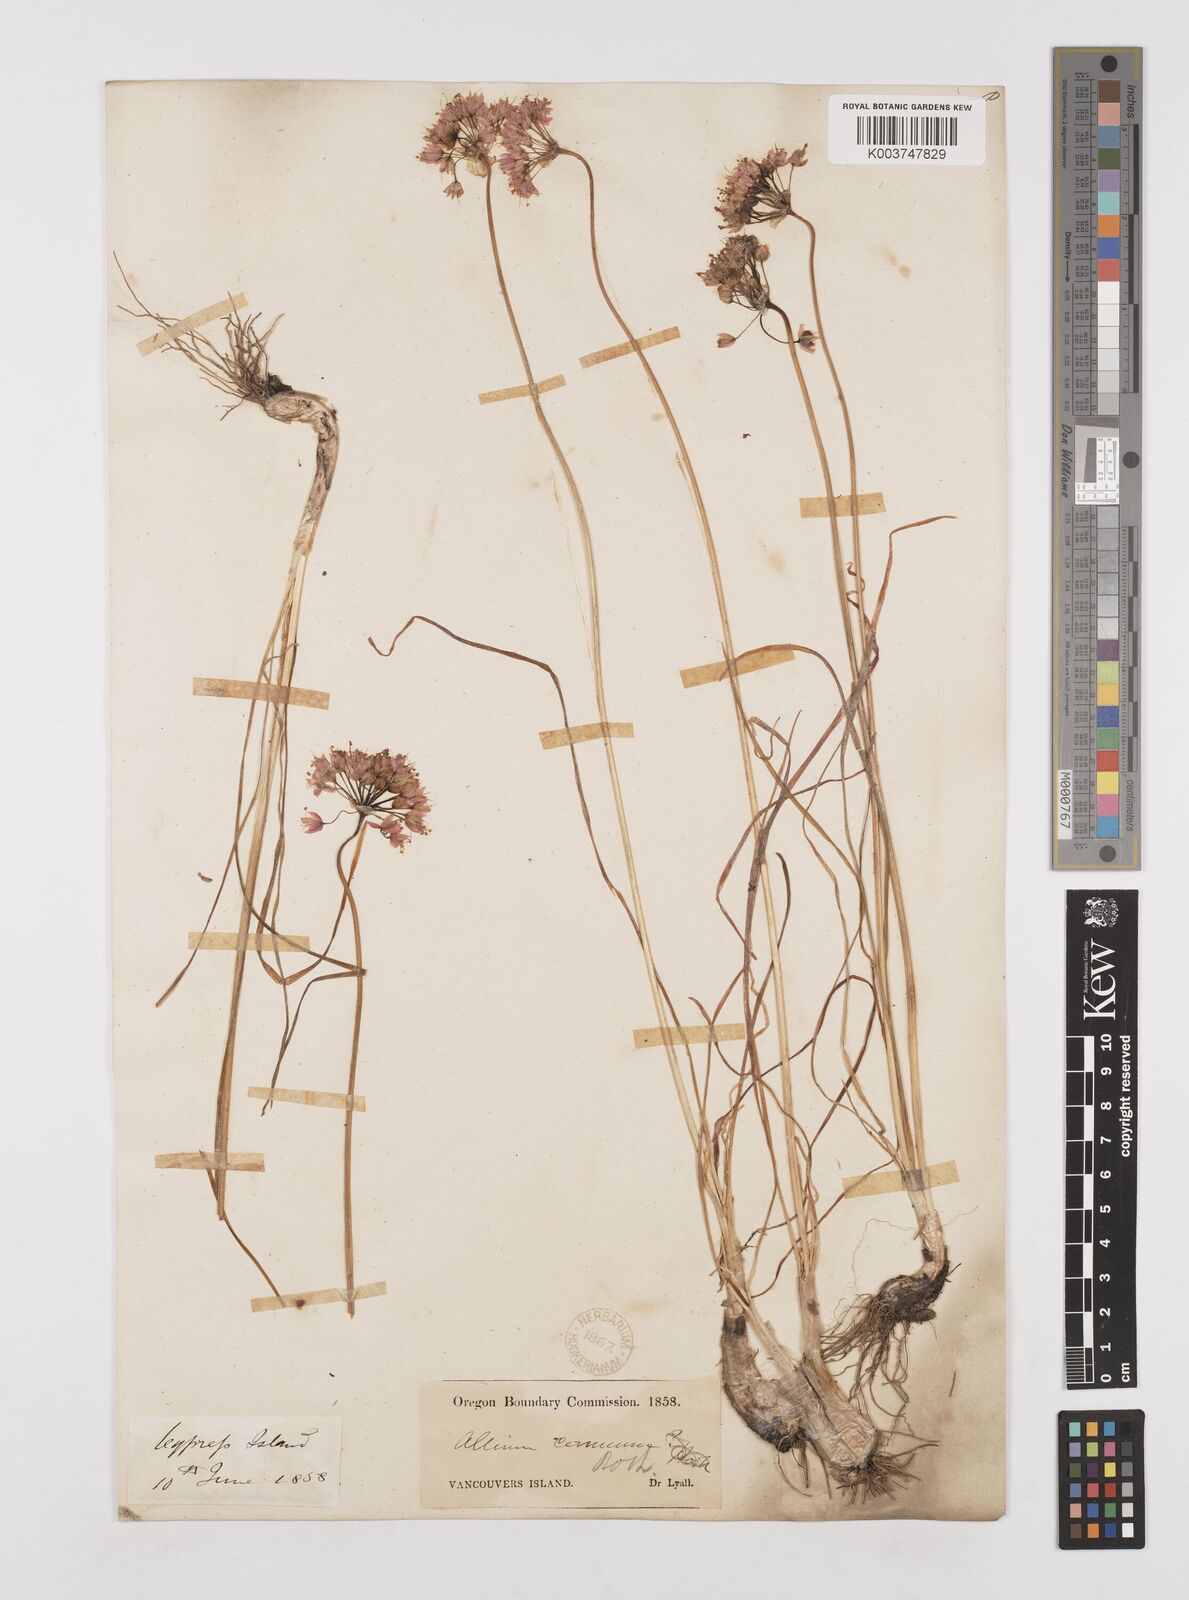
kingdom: Plantae
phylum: Tracheophyta
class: Liliopsida
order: Asparagales
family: Amaryllidaceae
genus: Allium
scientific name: Allium cernuum
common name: Nodding onion
